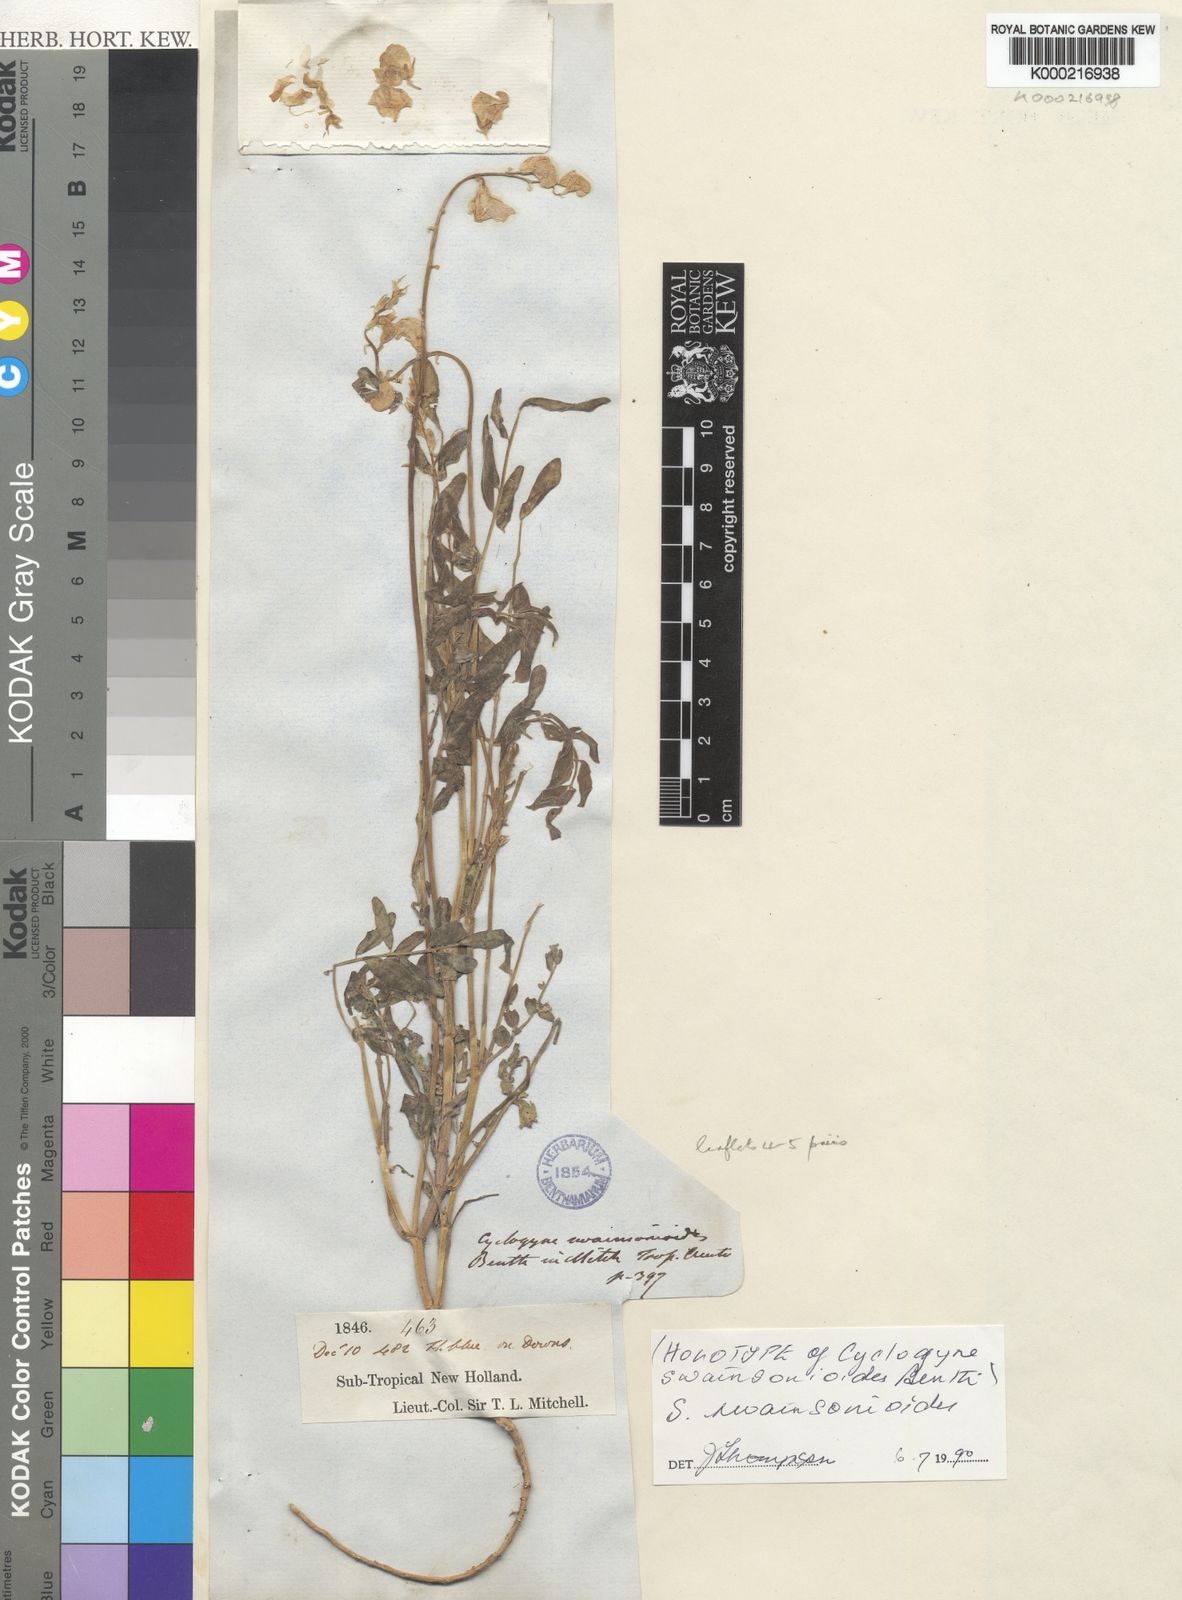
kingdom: Plantae
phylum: Tracheophyta
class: Magnoliopsida
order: Fabales
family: Fabaceae
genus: Swainsona
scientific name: Swainsona swainsonioides
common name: Downy swainsona
